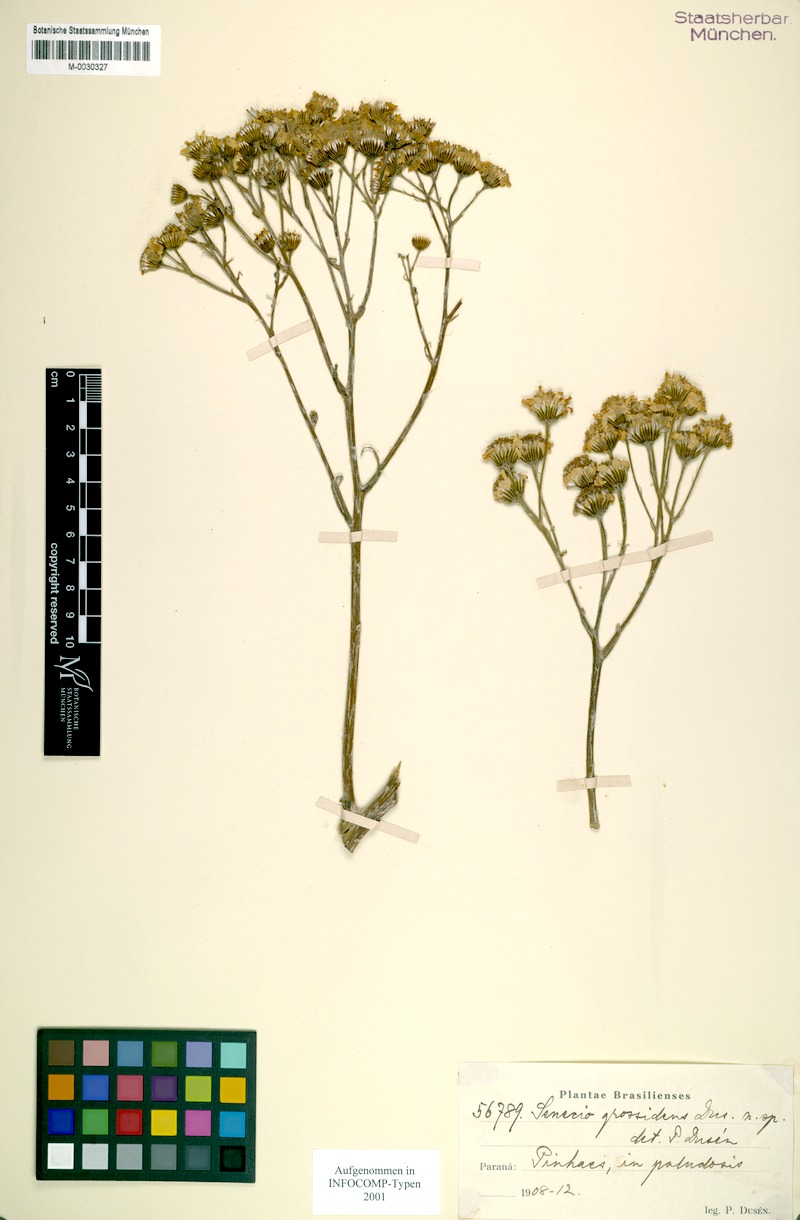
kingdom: Plantae
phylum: Tracheophyta
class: Magnoliopsida
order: Asterales
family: Asteraceae
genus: Senecio
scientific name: Senecio grossidens
